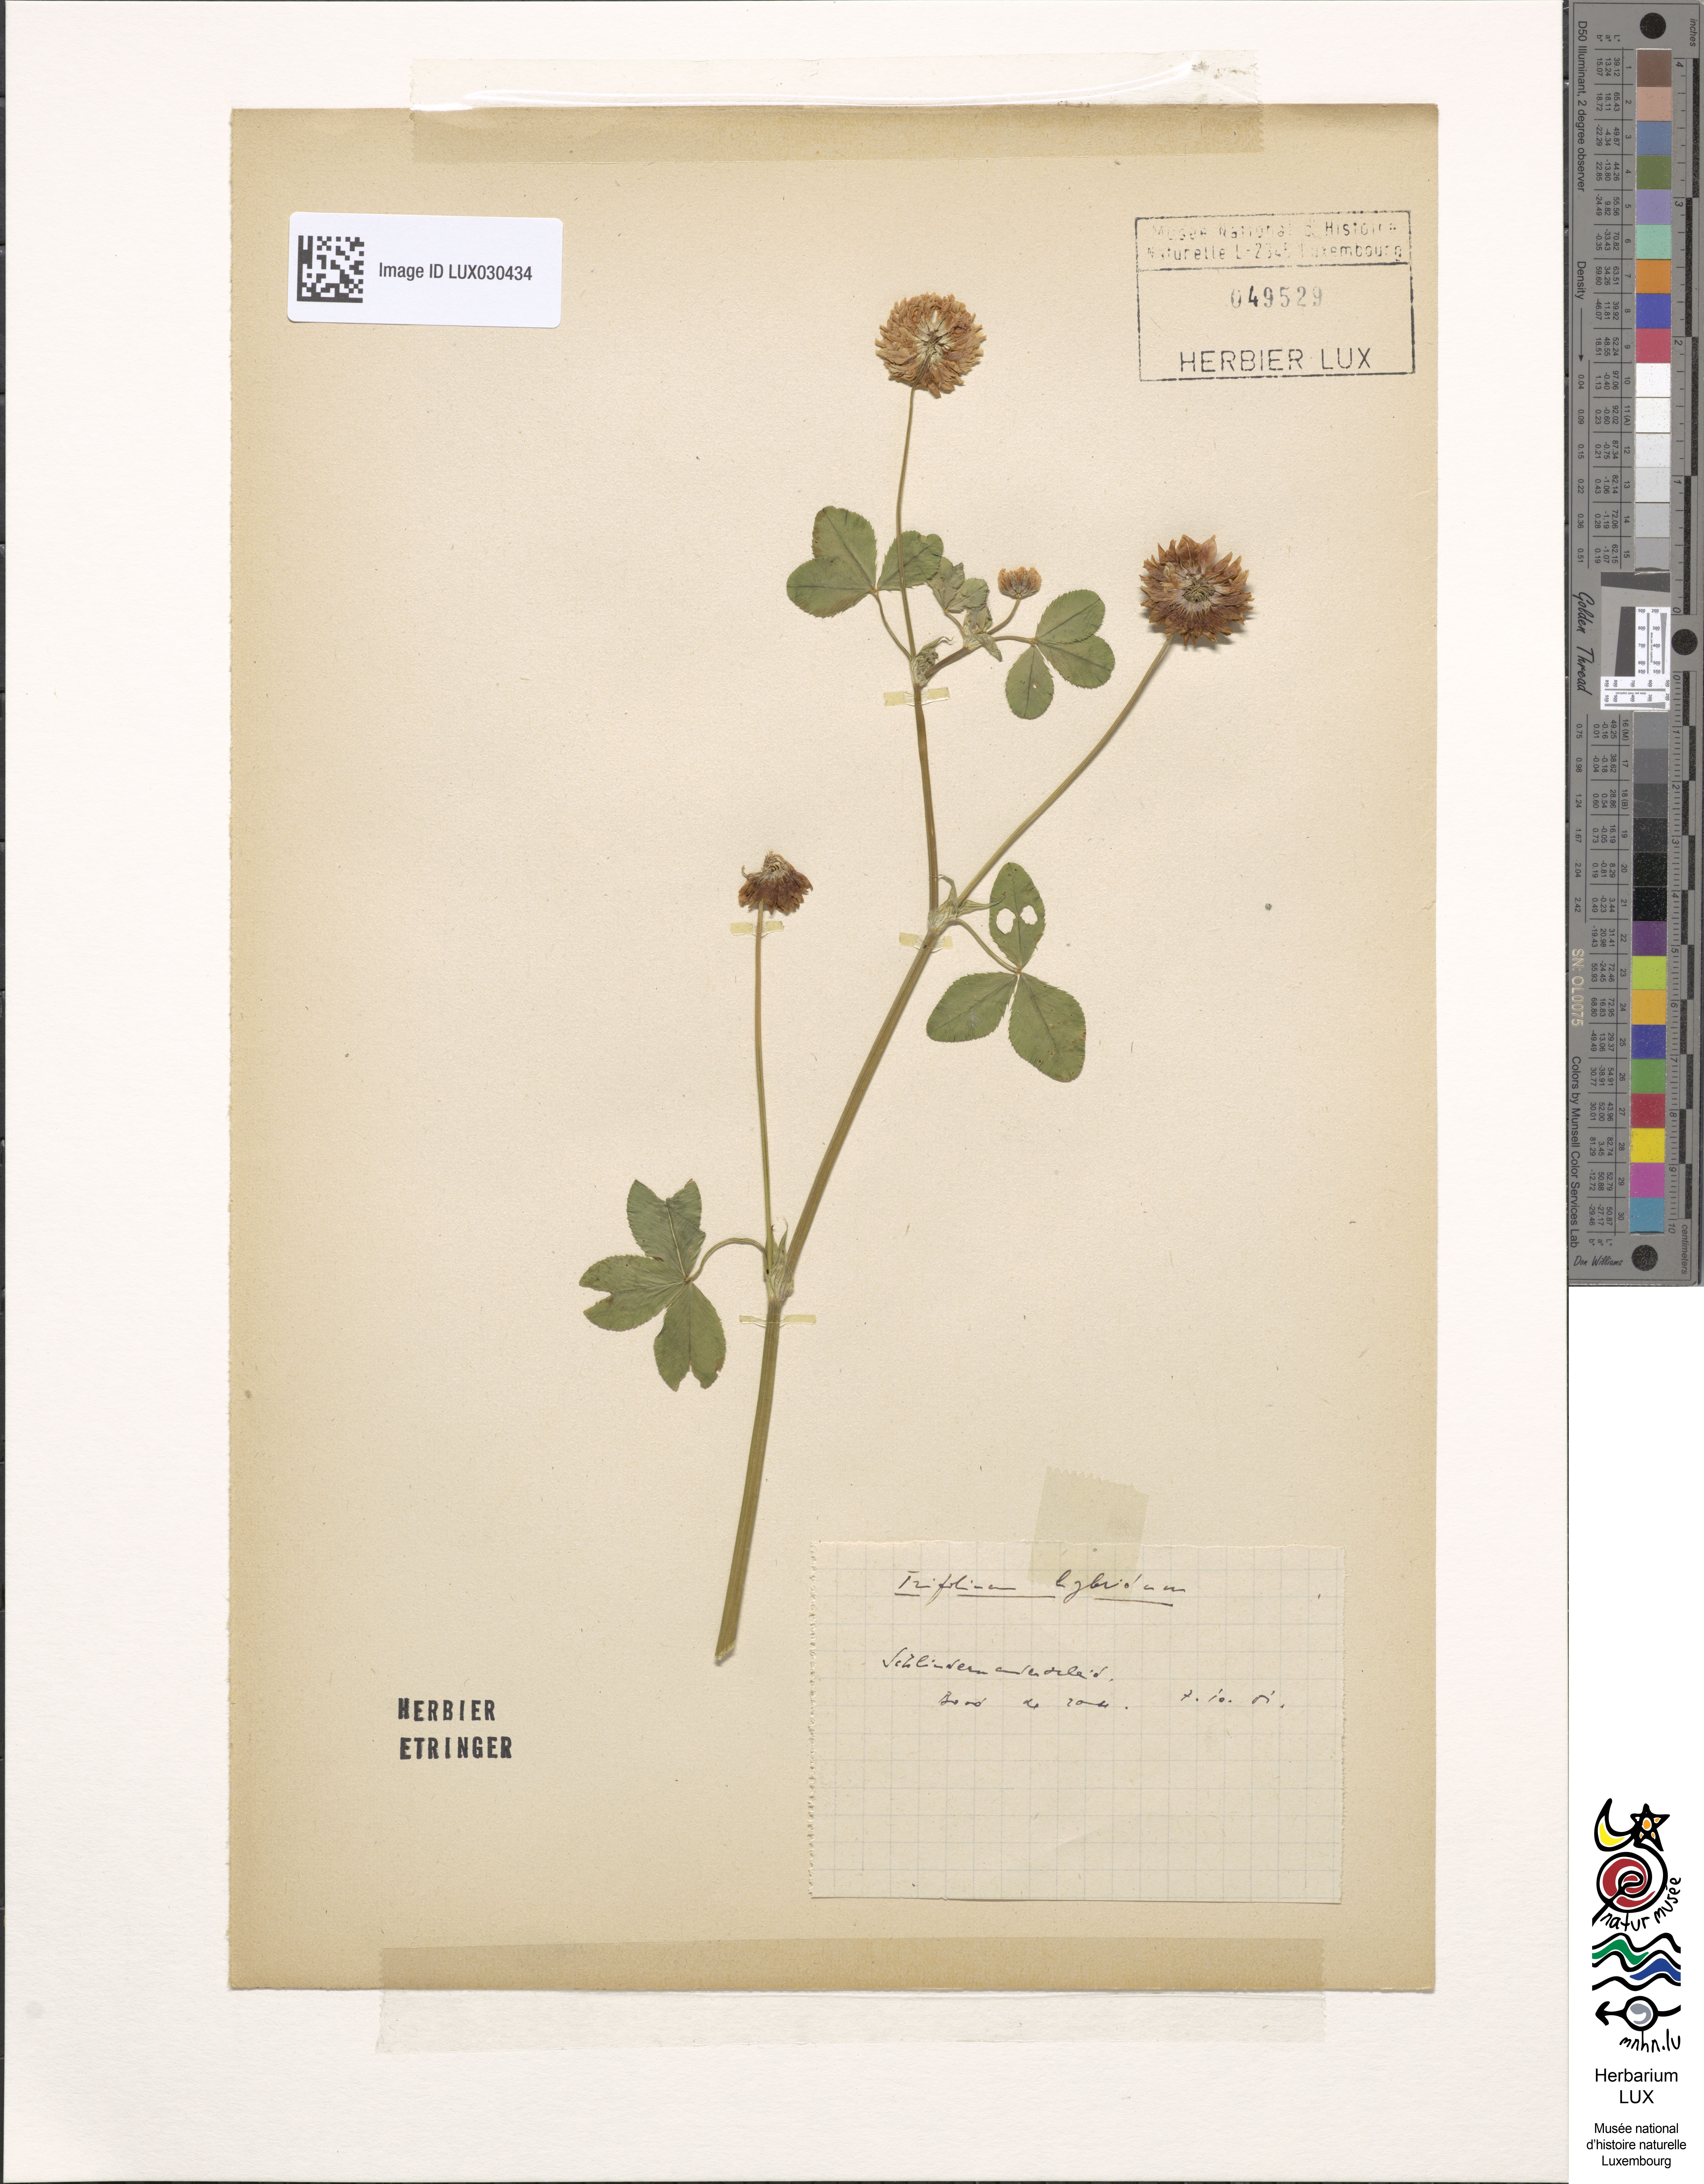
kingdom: Plantae
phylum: Tracheophyta
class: Magnoliopsida
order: Fabales
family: Fabaceae
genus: Trifolium
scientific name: Trifolium hybridum
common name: Alsike clover
